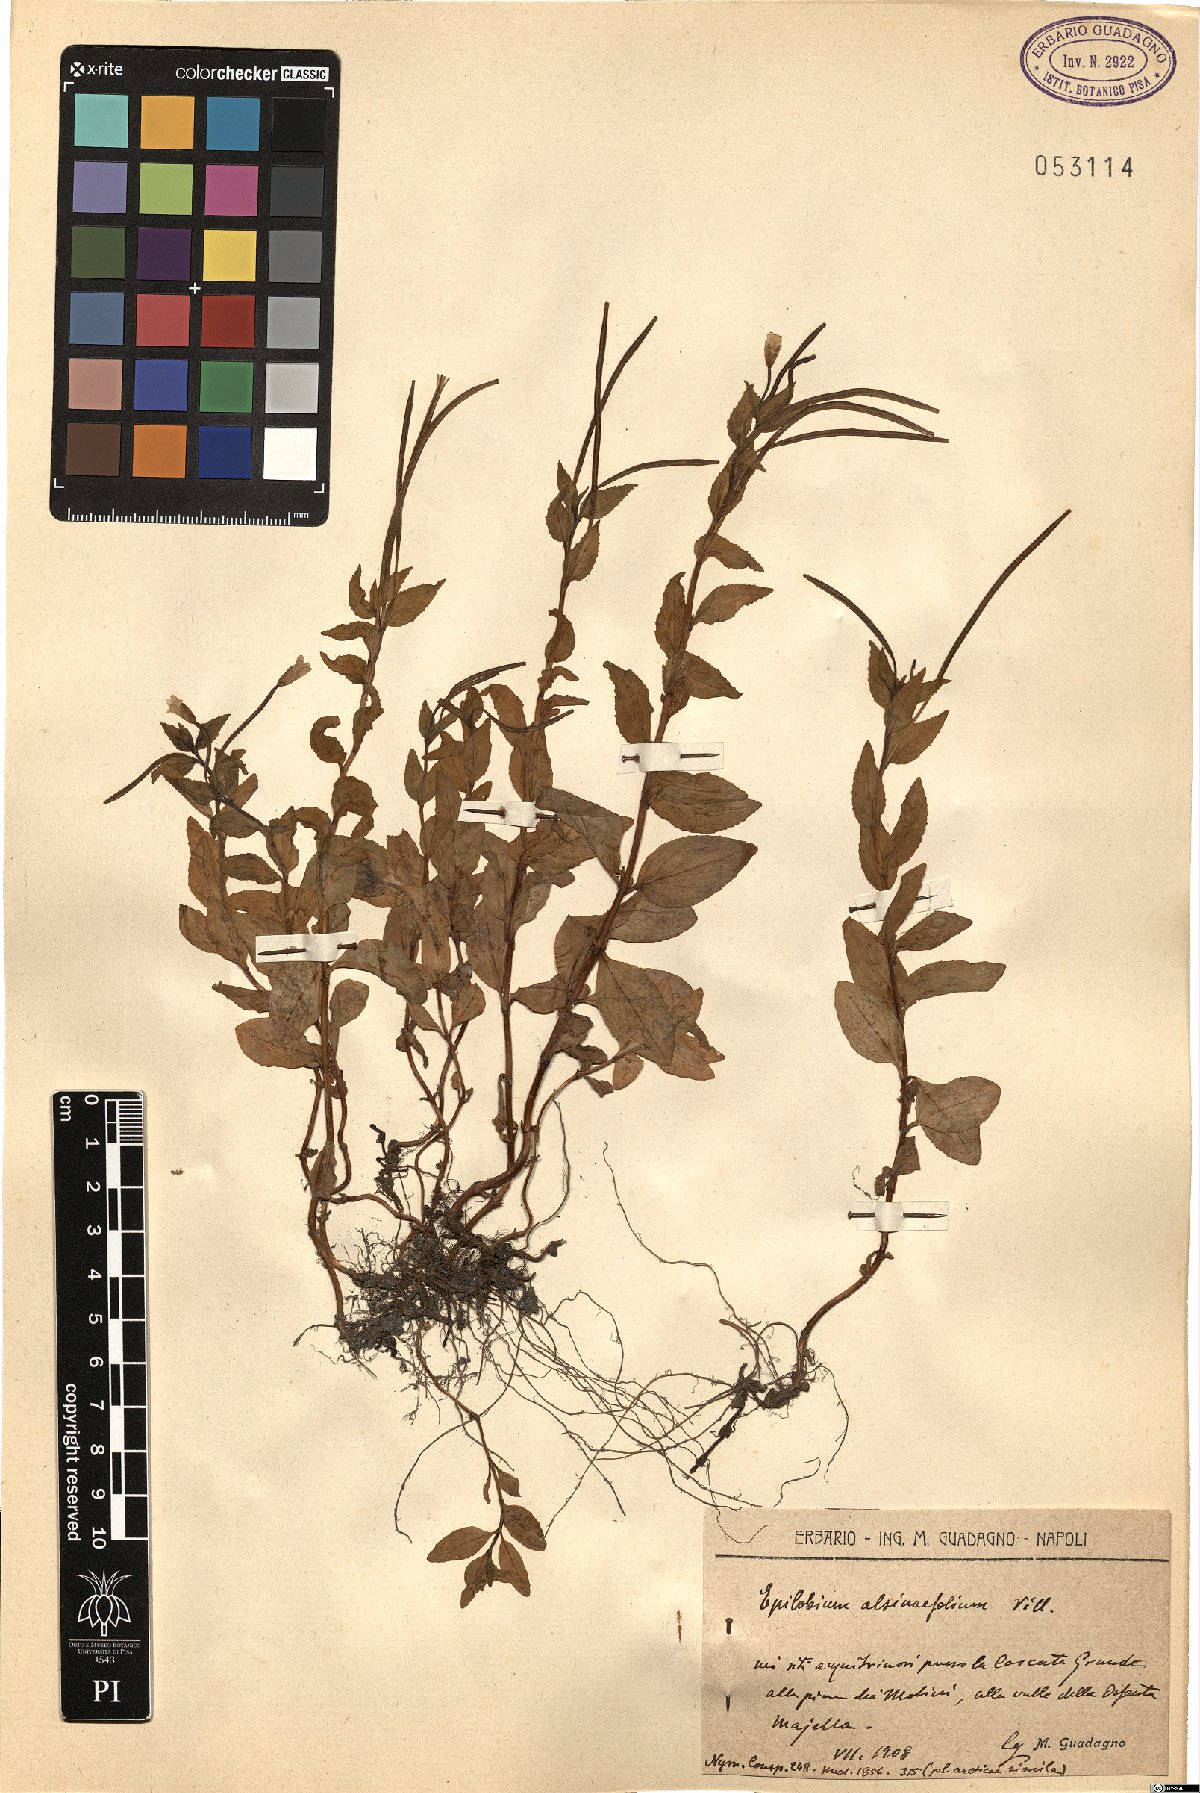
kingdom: Plantae
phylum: Tracheophyta
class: Magnoliopsida
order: Myrtales
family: Onagraceae
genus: Epilobium
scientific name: Epilobium alsinifolium
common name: Chickweed willowherb
